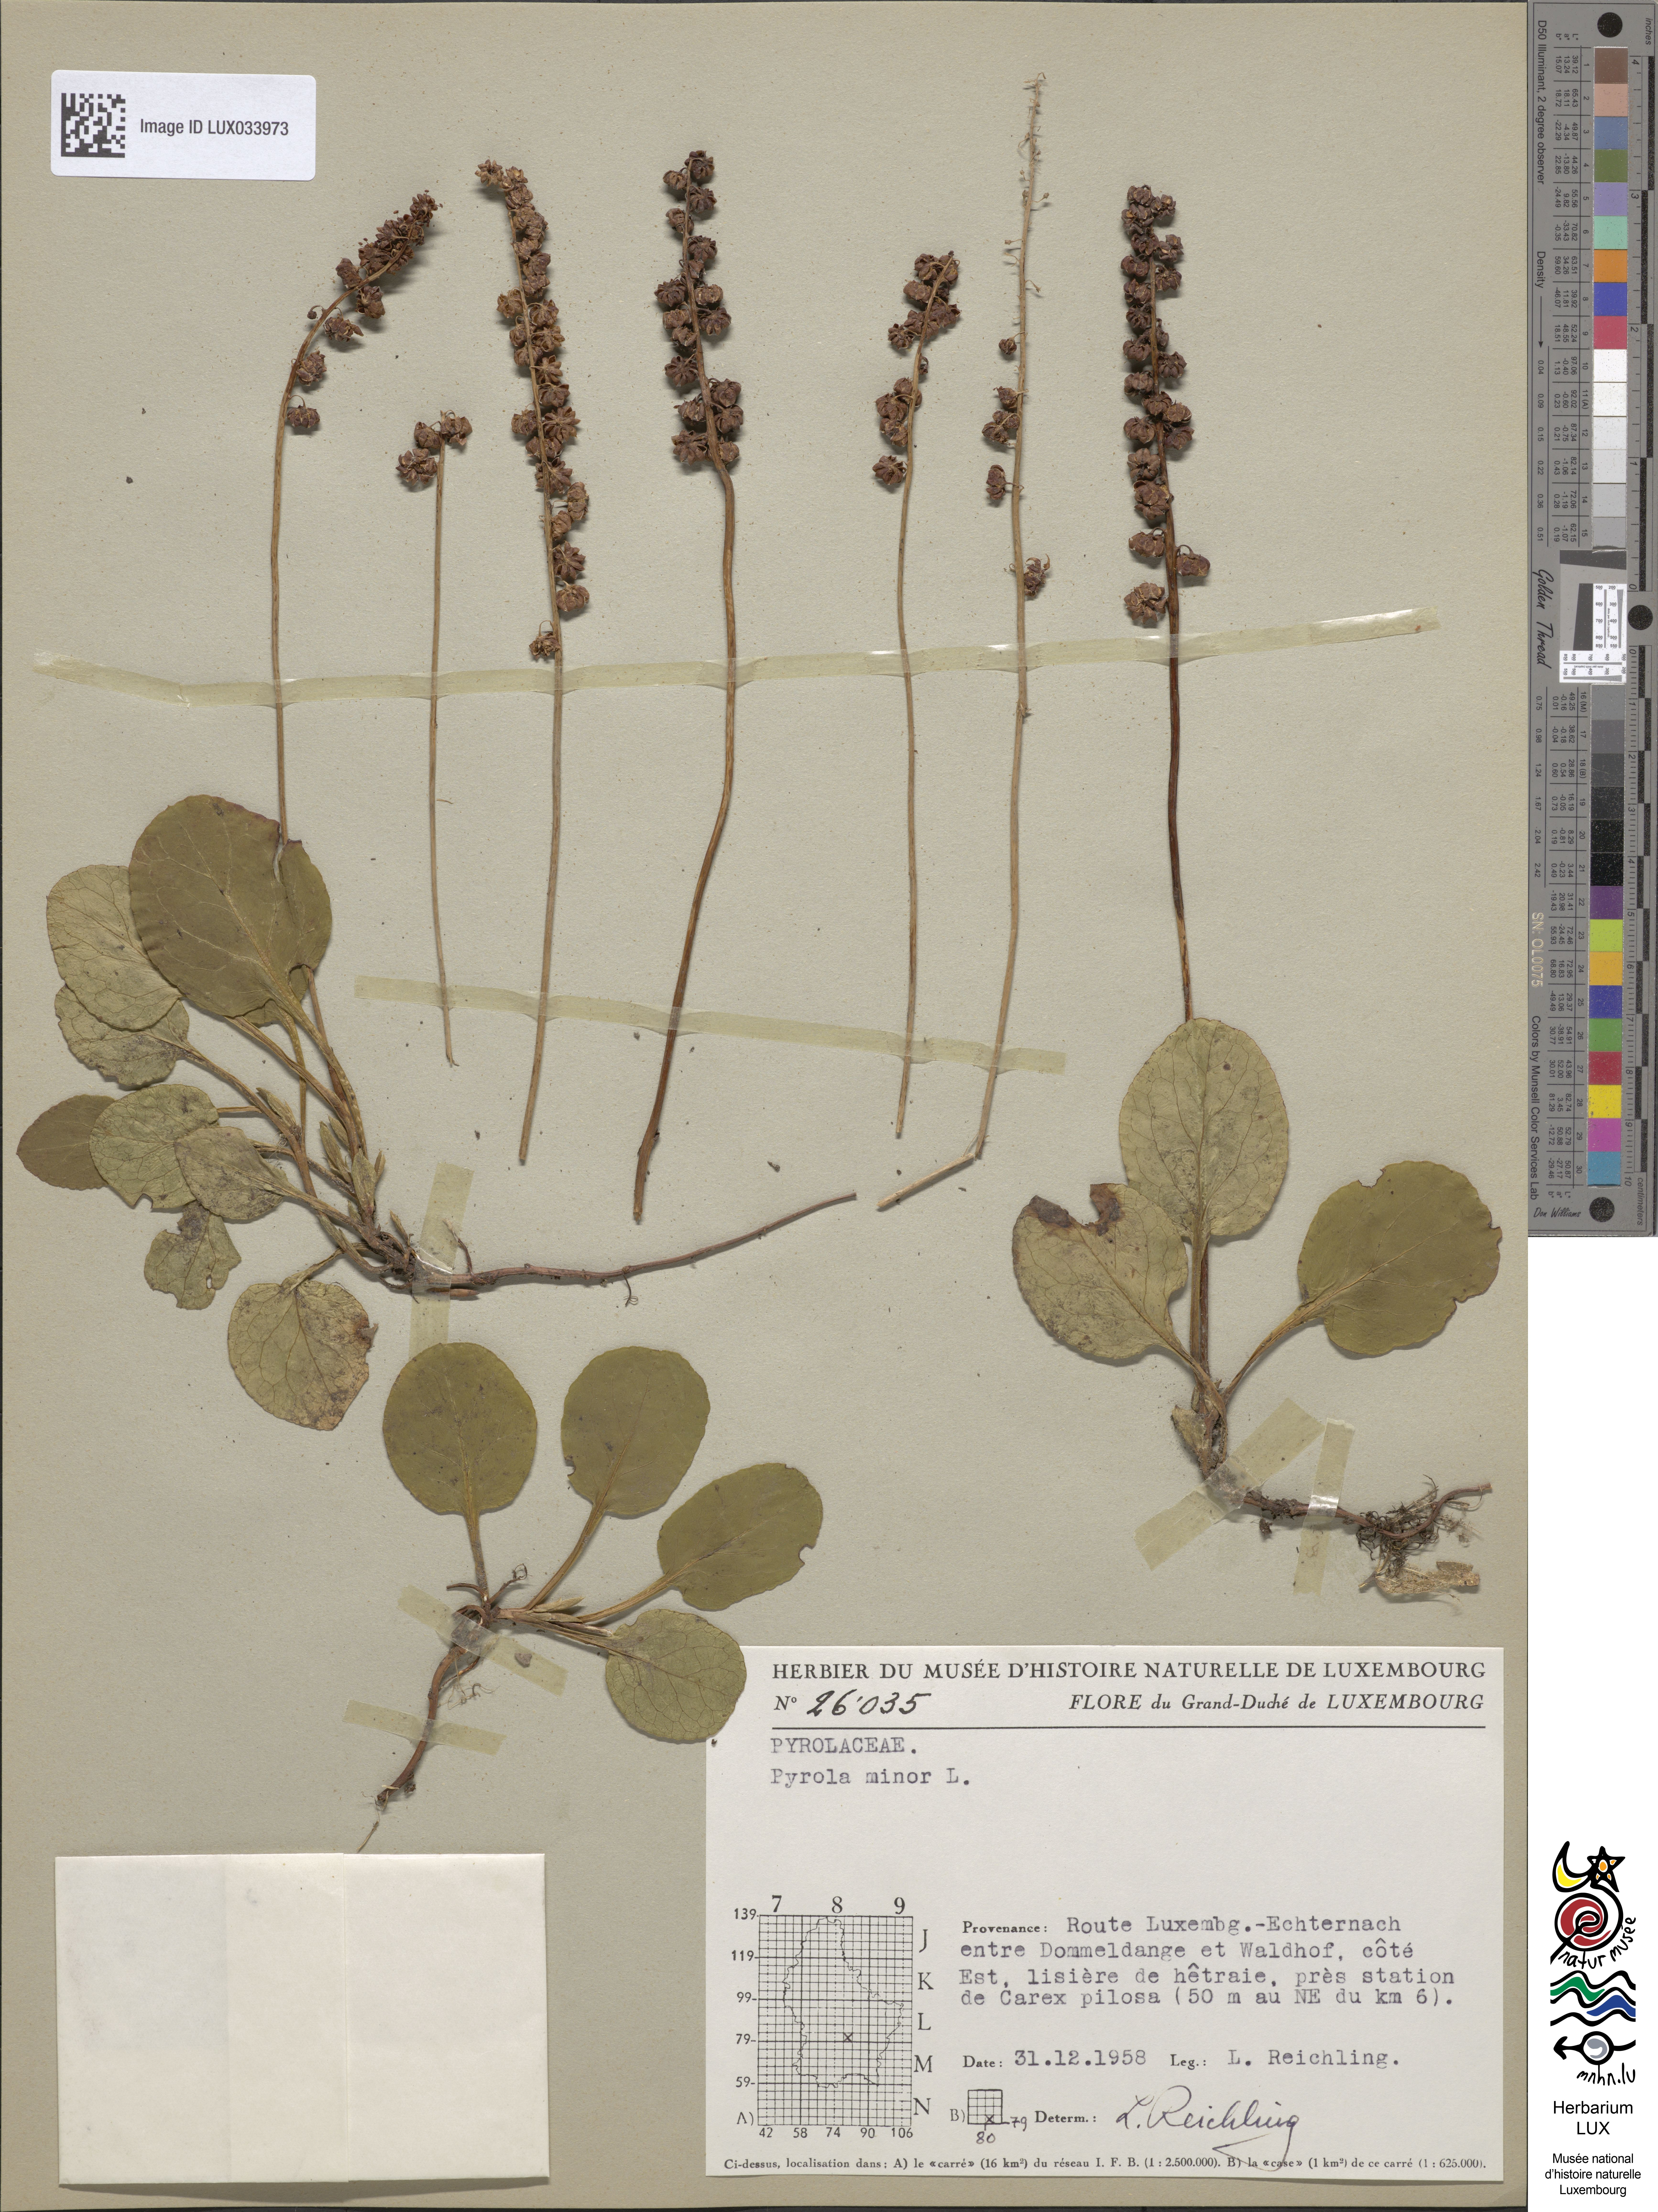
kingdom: Plantae
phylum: Tracheophyta
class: Magnoliopsida
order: Ericales
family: Ericaceae
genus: Pyrola
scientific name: Pyrola minor
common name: Common wintergreen
